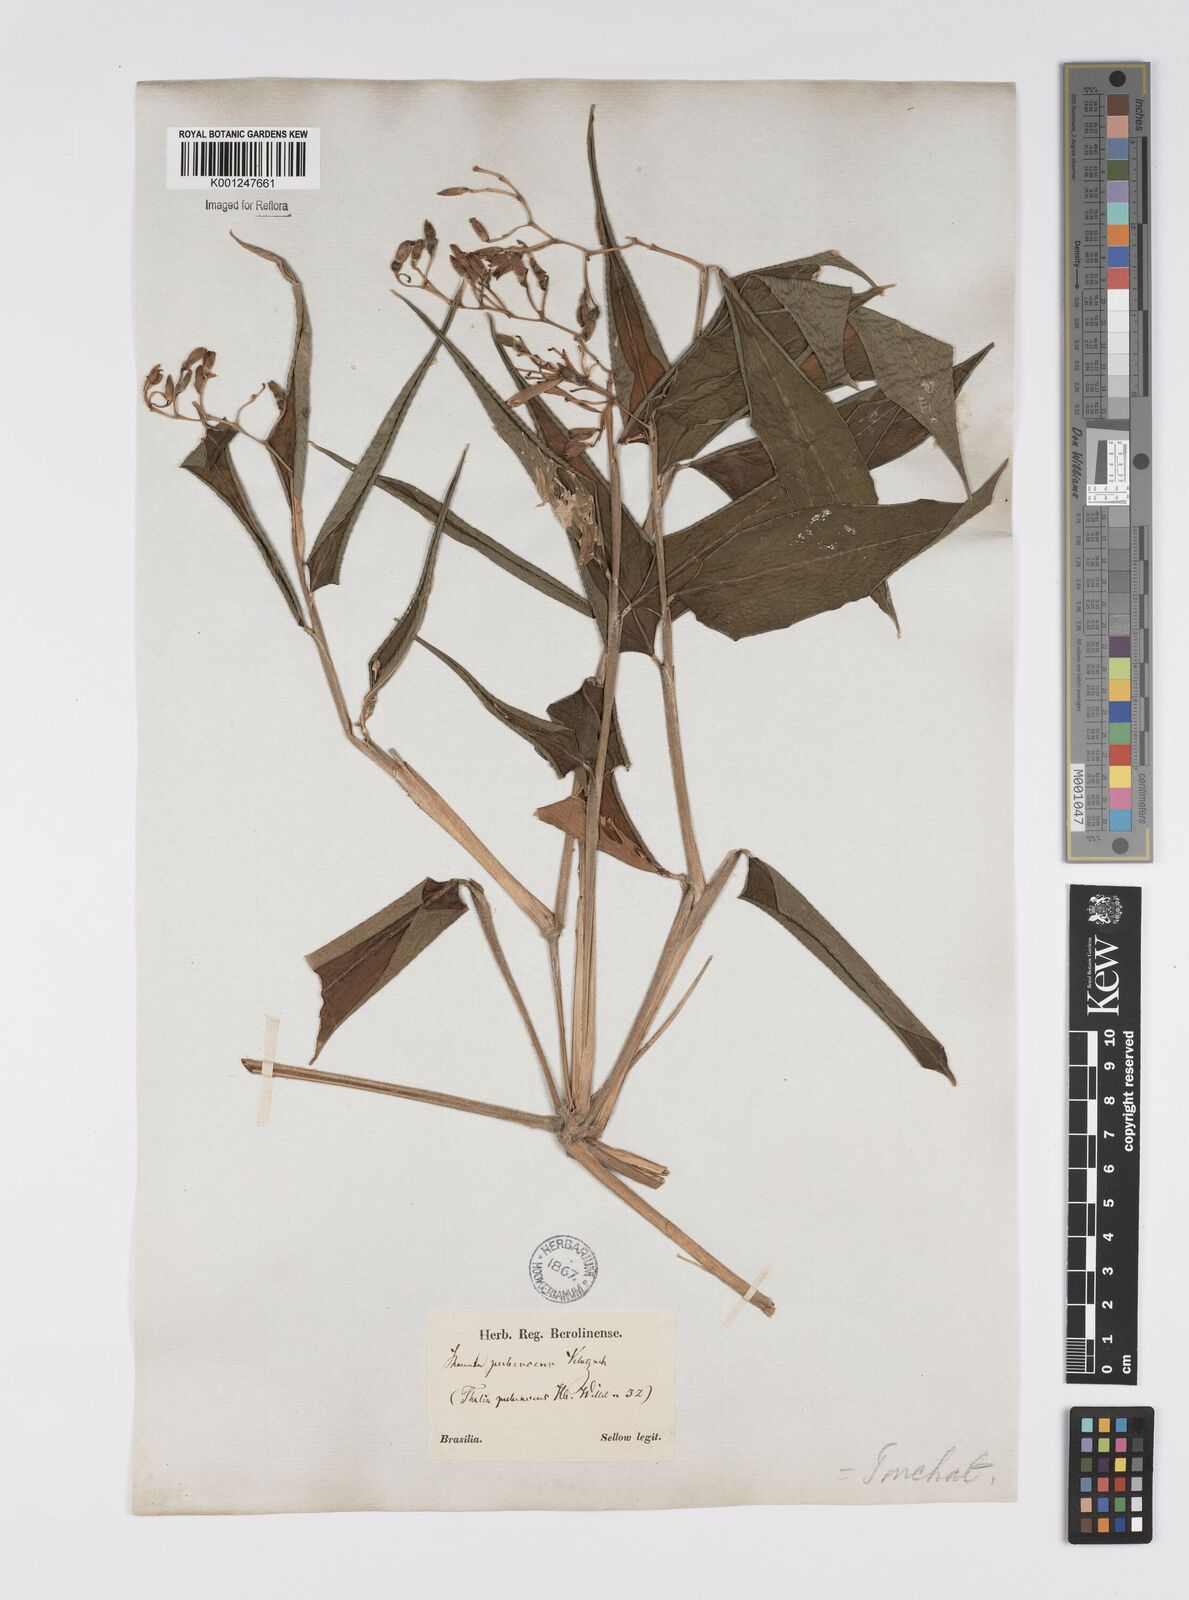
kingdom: Plantae
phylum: Tracheophyta
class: Liliopsida
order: Zingiberales
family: Marantaceae
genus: Stromanthe
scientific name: Stromanthe tonckat
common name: Stromanthe
